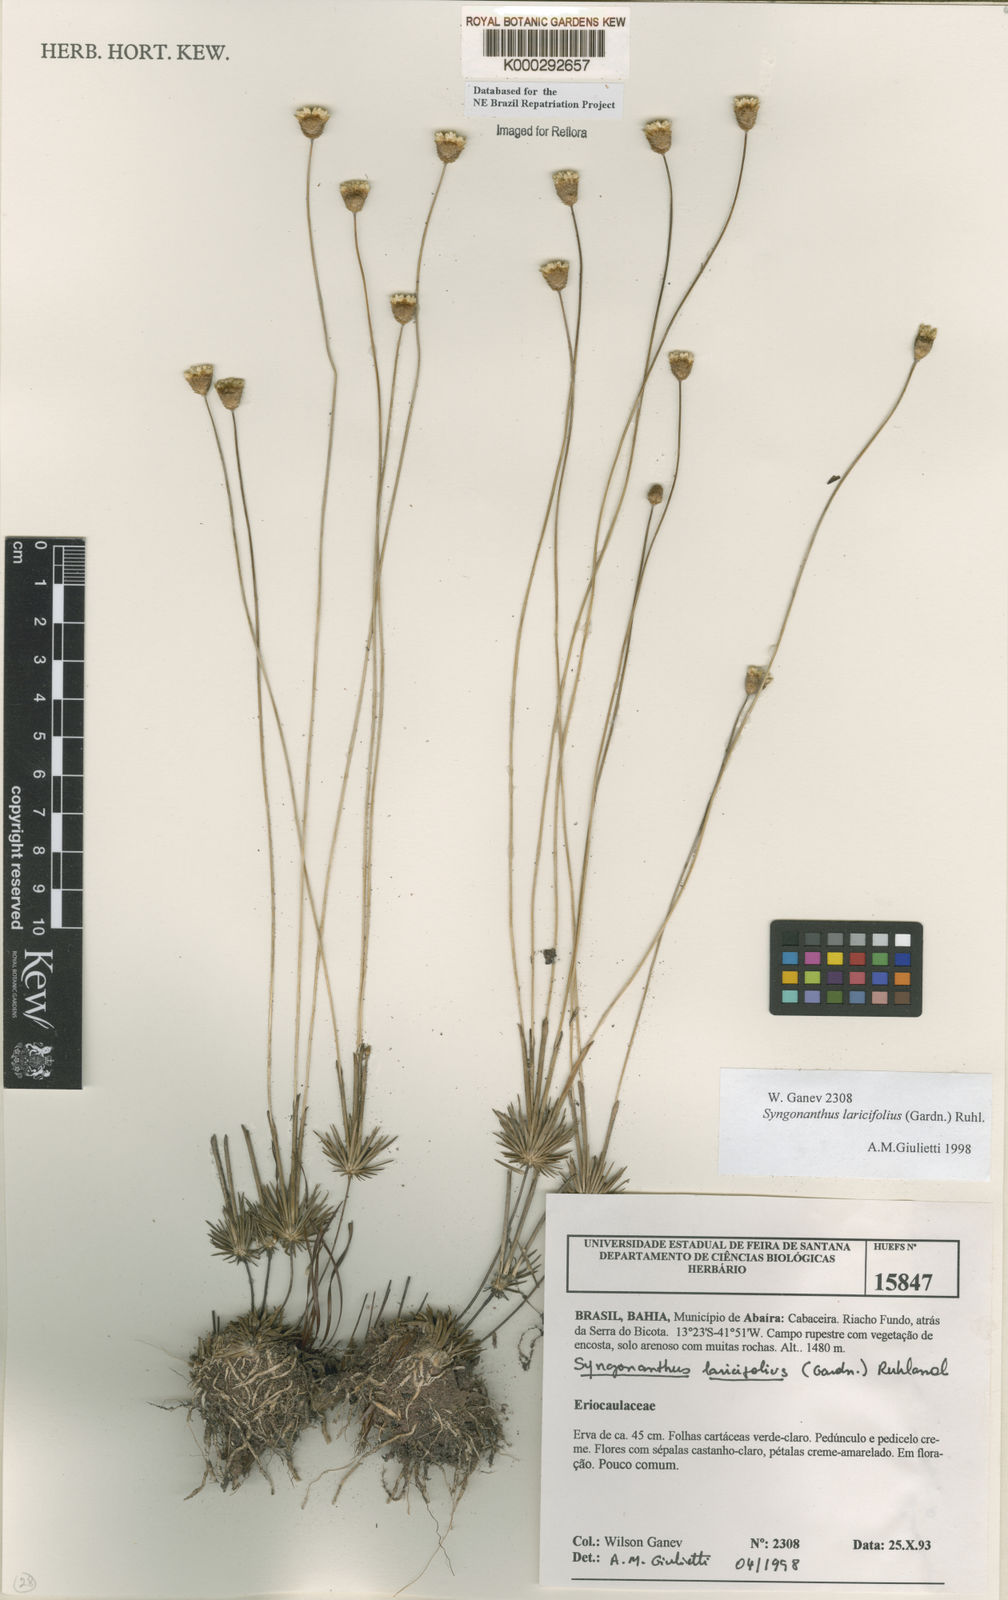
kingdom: Plantae
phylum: Tracheophyta
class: Liliopsida
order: Poales
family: Eriocaulaceae
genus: Syngonanthus
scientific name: Syngonanthus laricifolius
